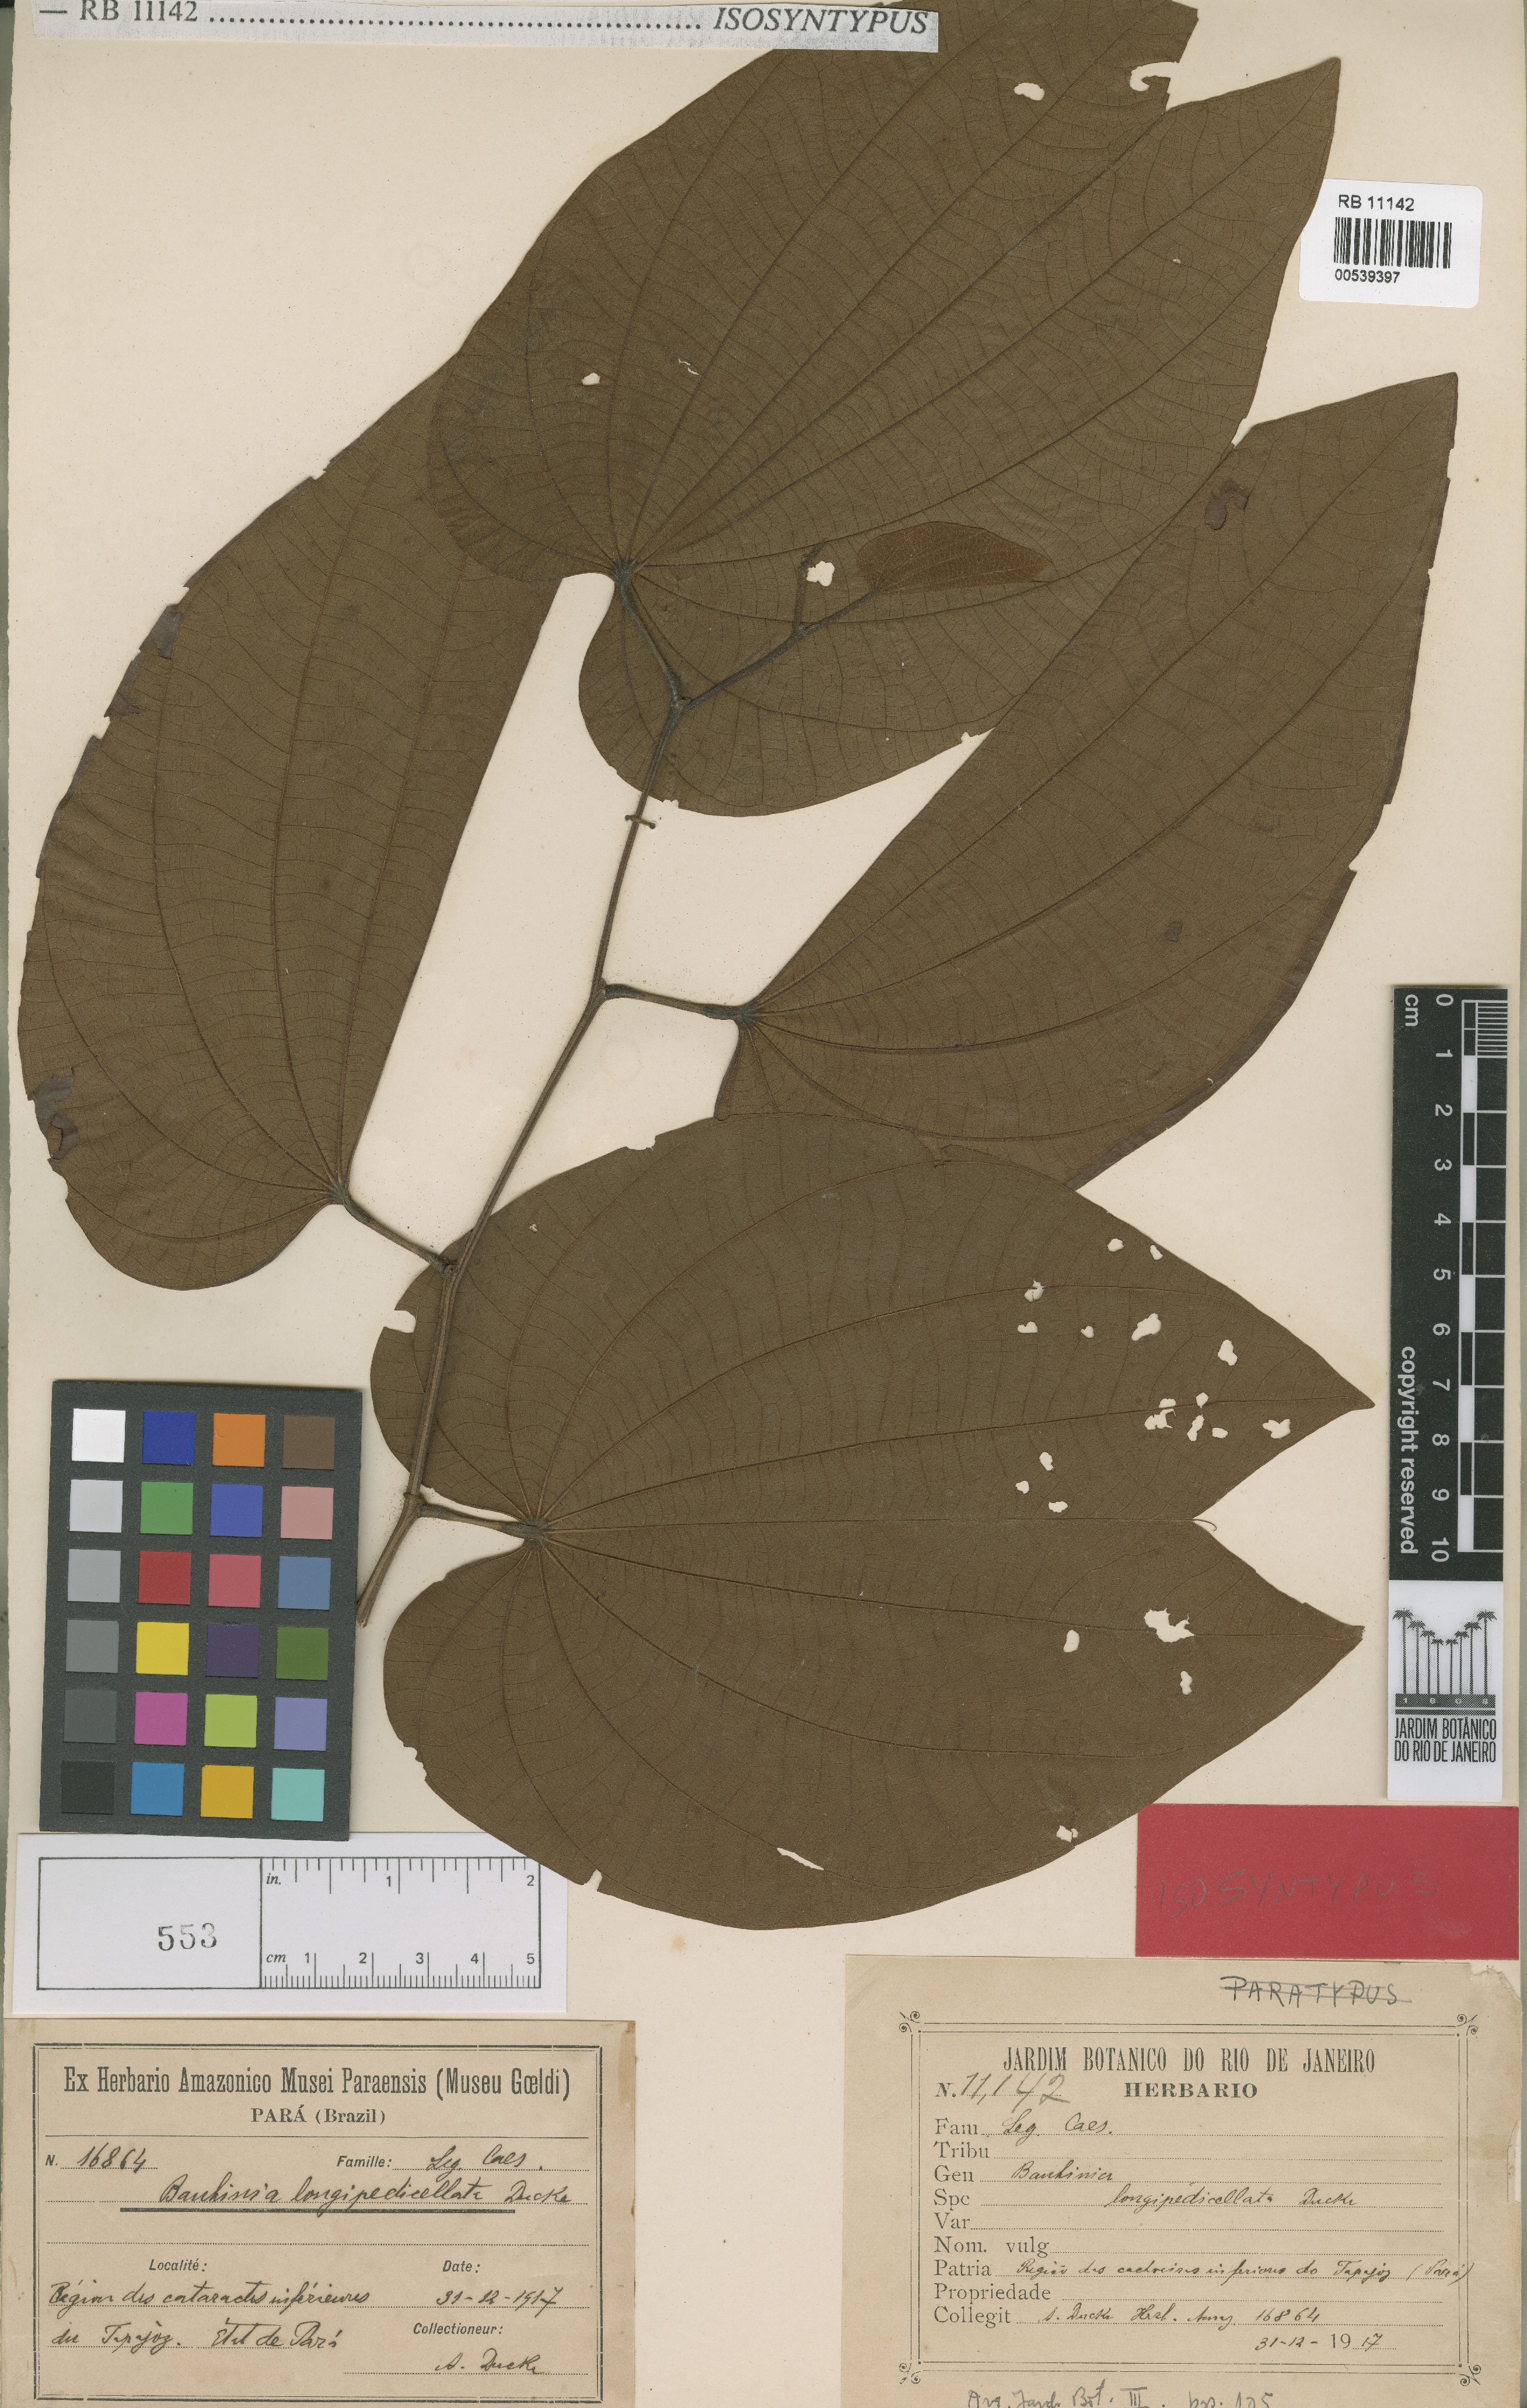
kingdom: Plantae
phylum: Tracheophyta
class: Magnoliopsida
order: Fabales
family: Fabaceae
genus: Bauhinia
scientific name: Bauhinia longipedicellata
